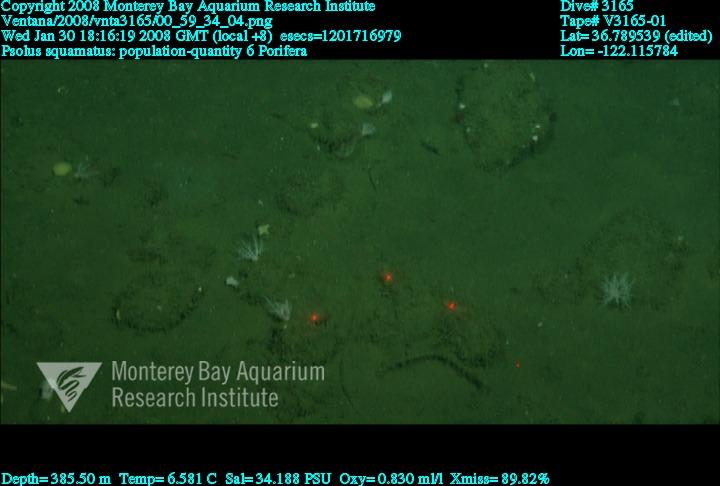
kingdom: Animalia
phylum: Porifera
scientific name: Porifera
